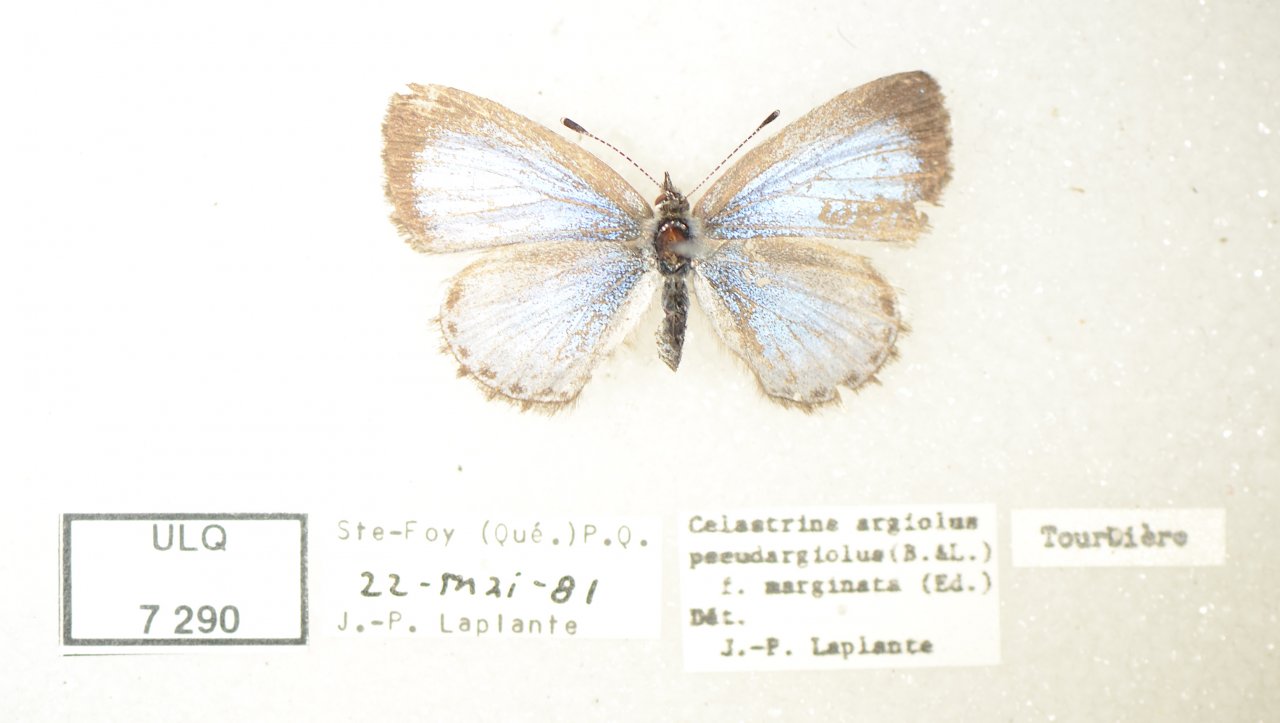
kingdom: Animalia
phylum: Arthropoda
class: Insecta
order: Lepidoptera
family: Lycaenidae
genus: Celastrina
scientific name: Celastrina lucia
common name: Northern Spring Azure
